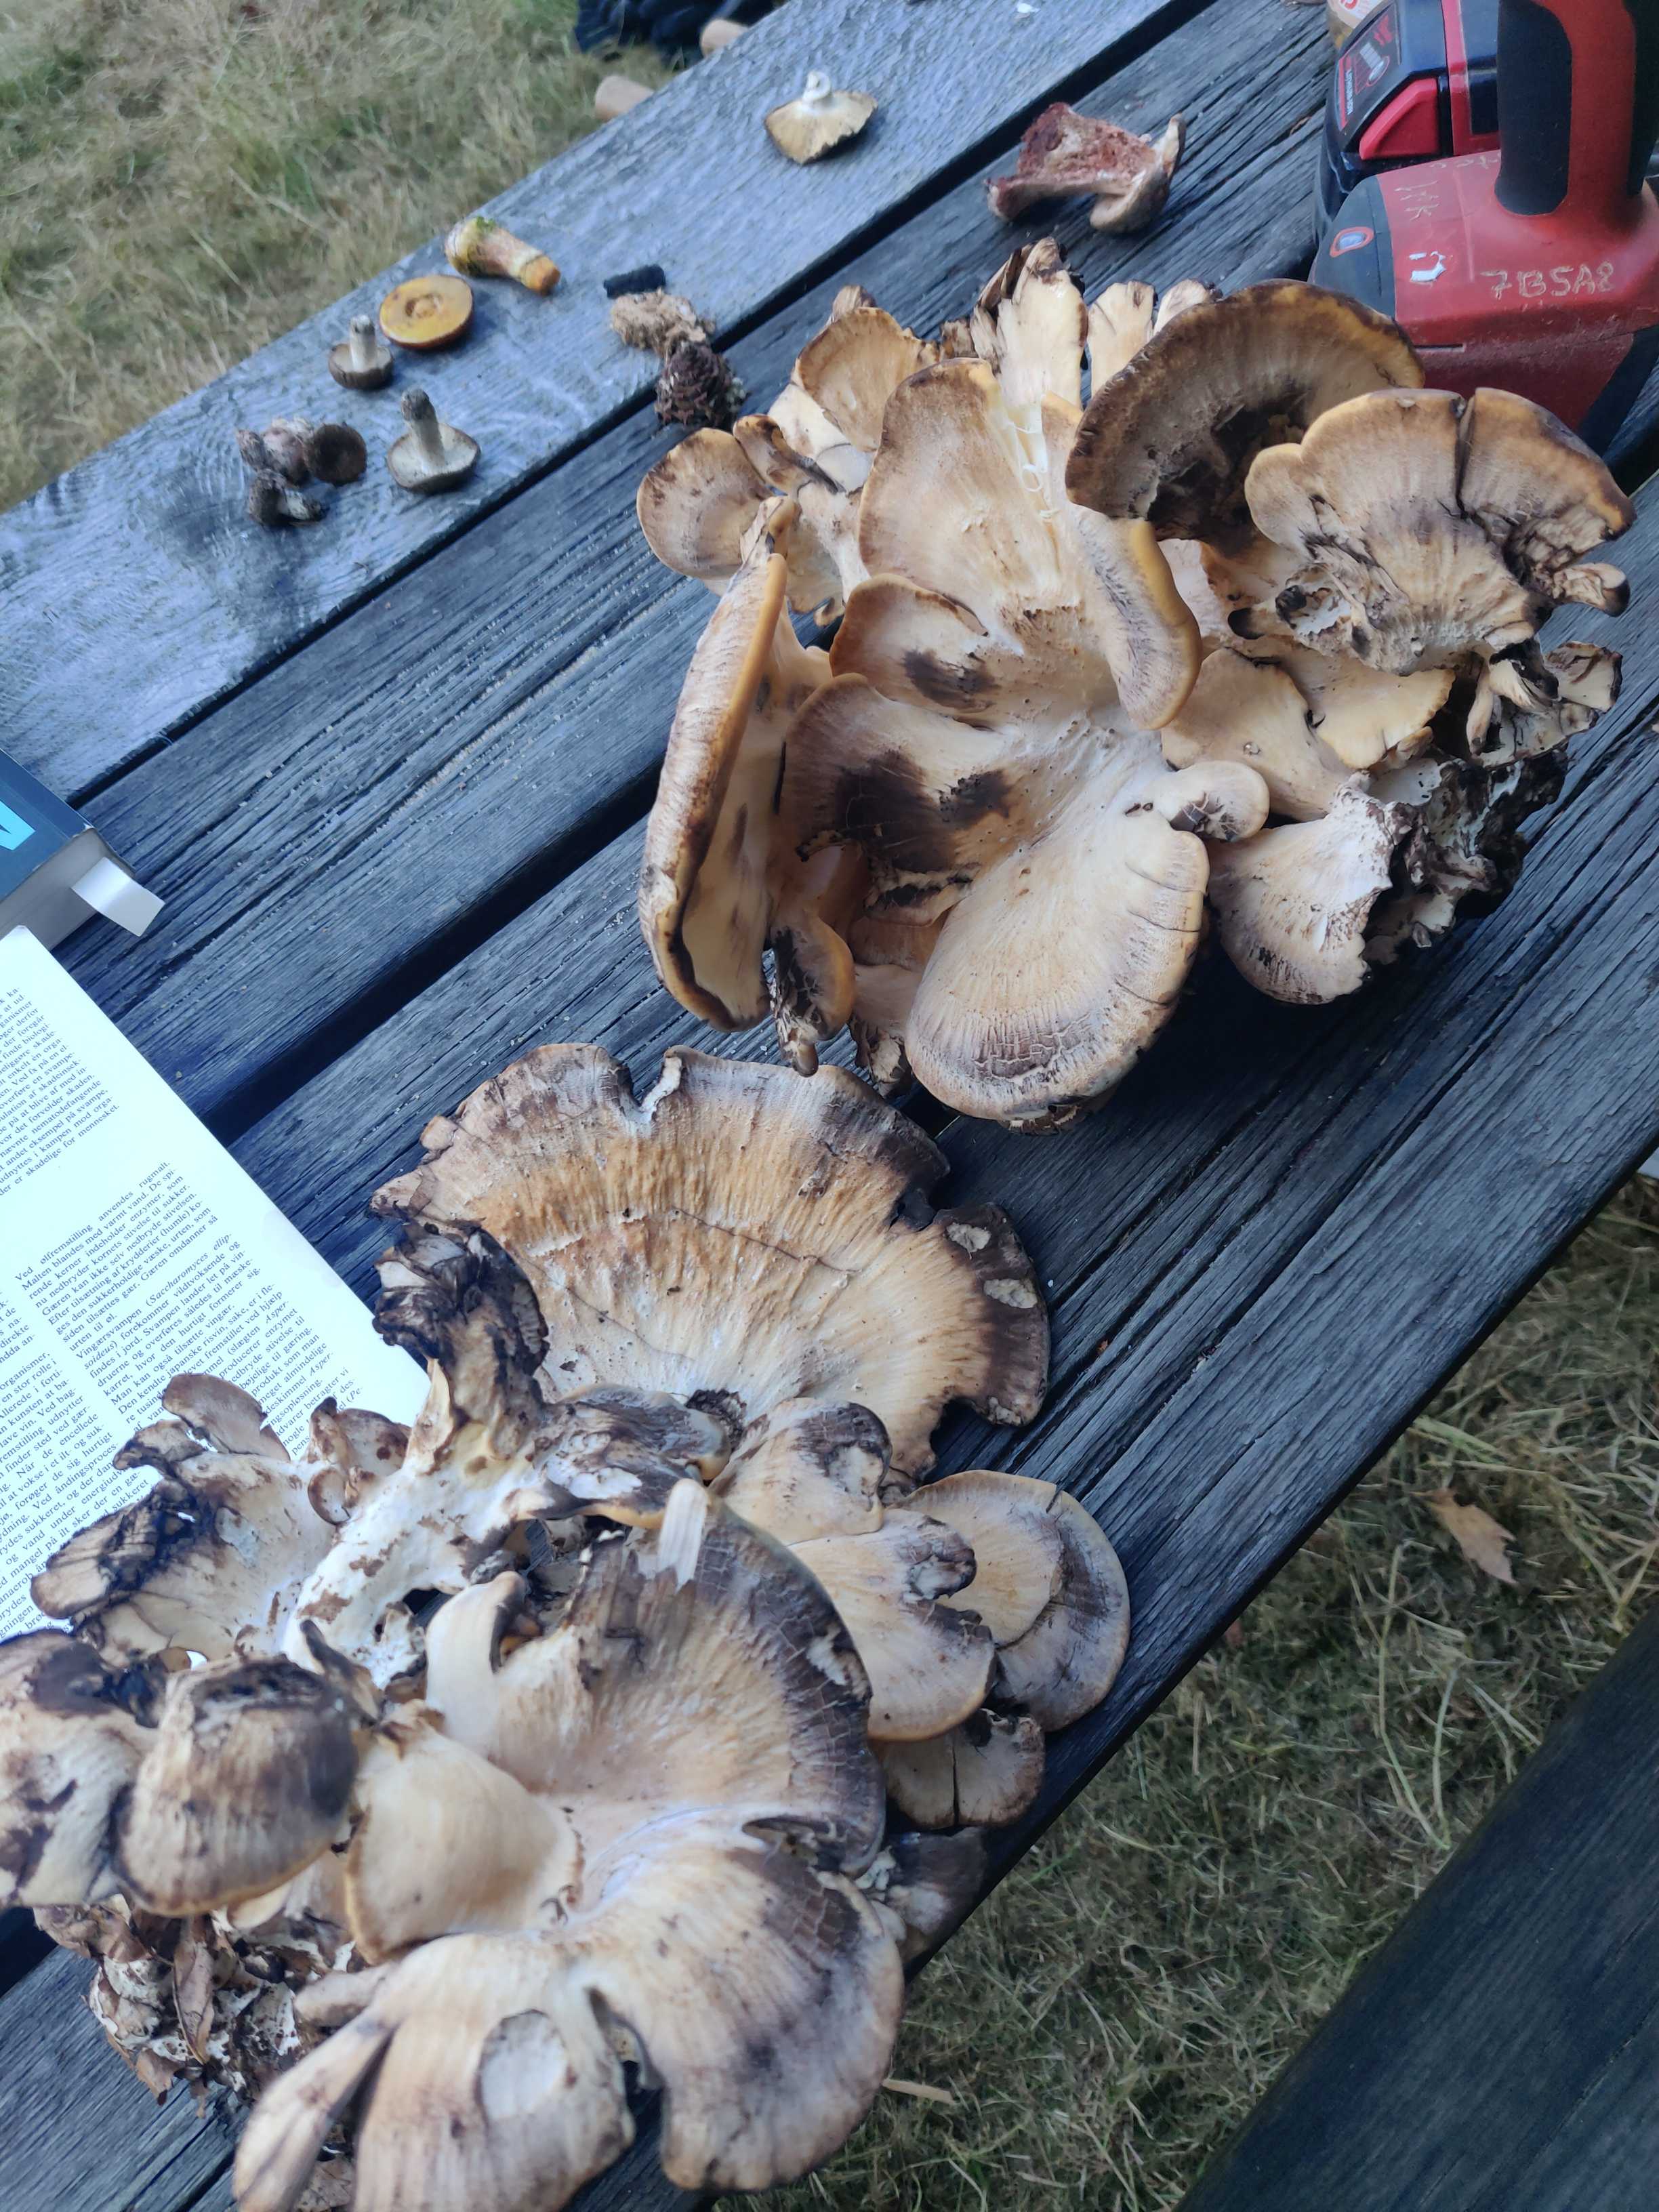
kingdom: Fungi
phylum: Basidiomycota
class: Agaricomycetes
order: Polyporales
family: Meripilaceae
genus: Meripilus
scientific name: Meripilus giganteus
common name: kæmpeporesvamp
